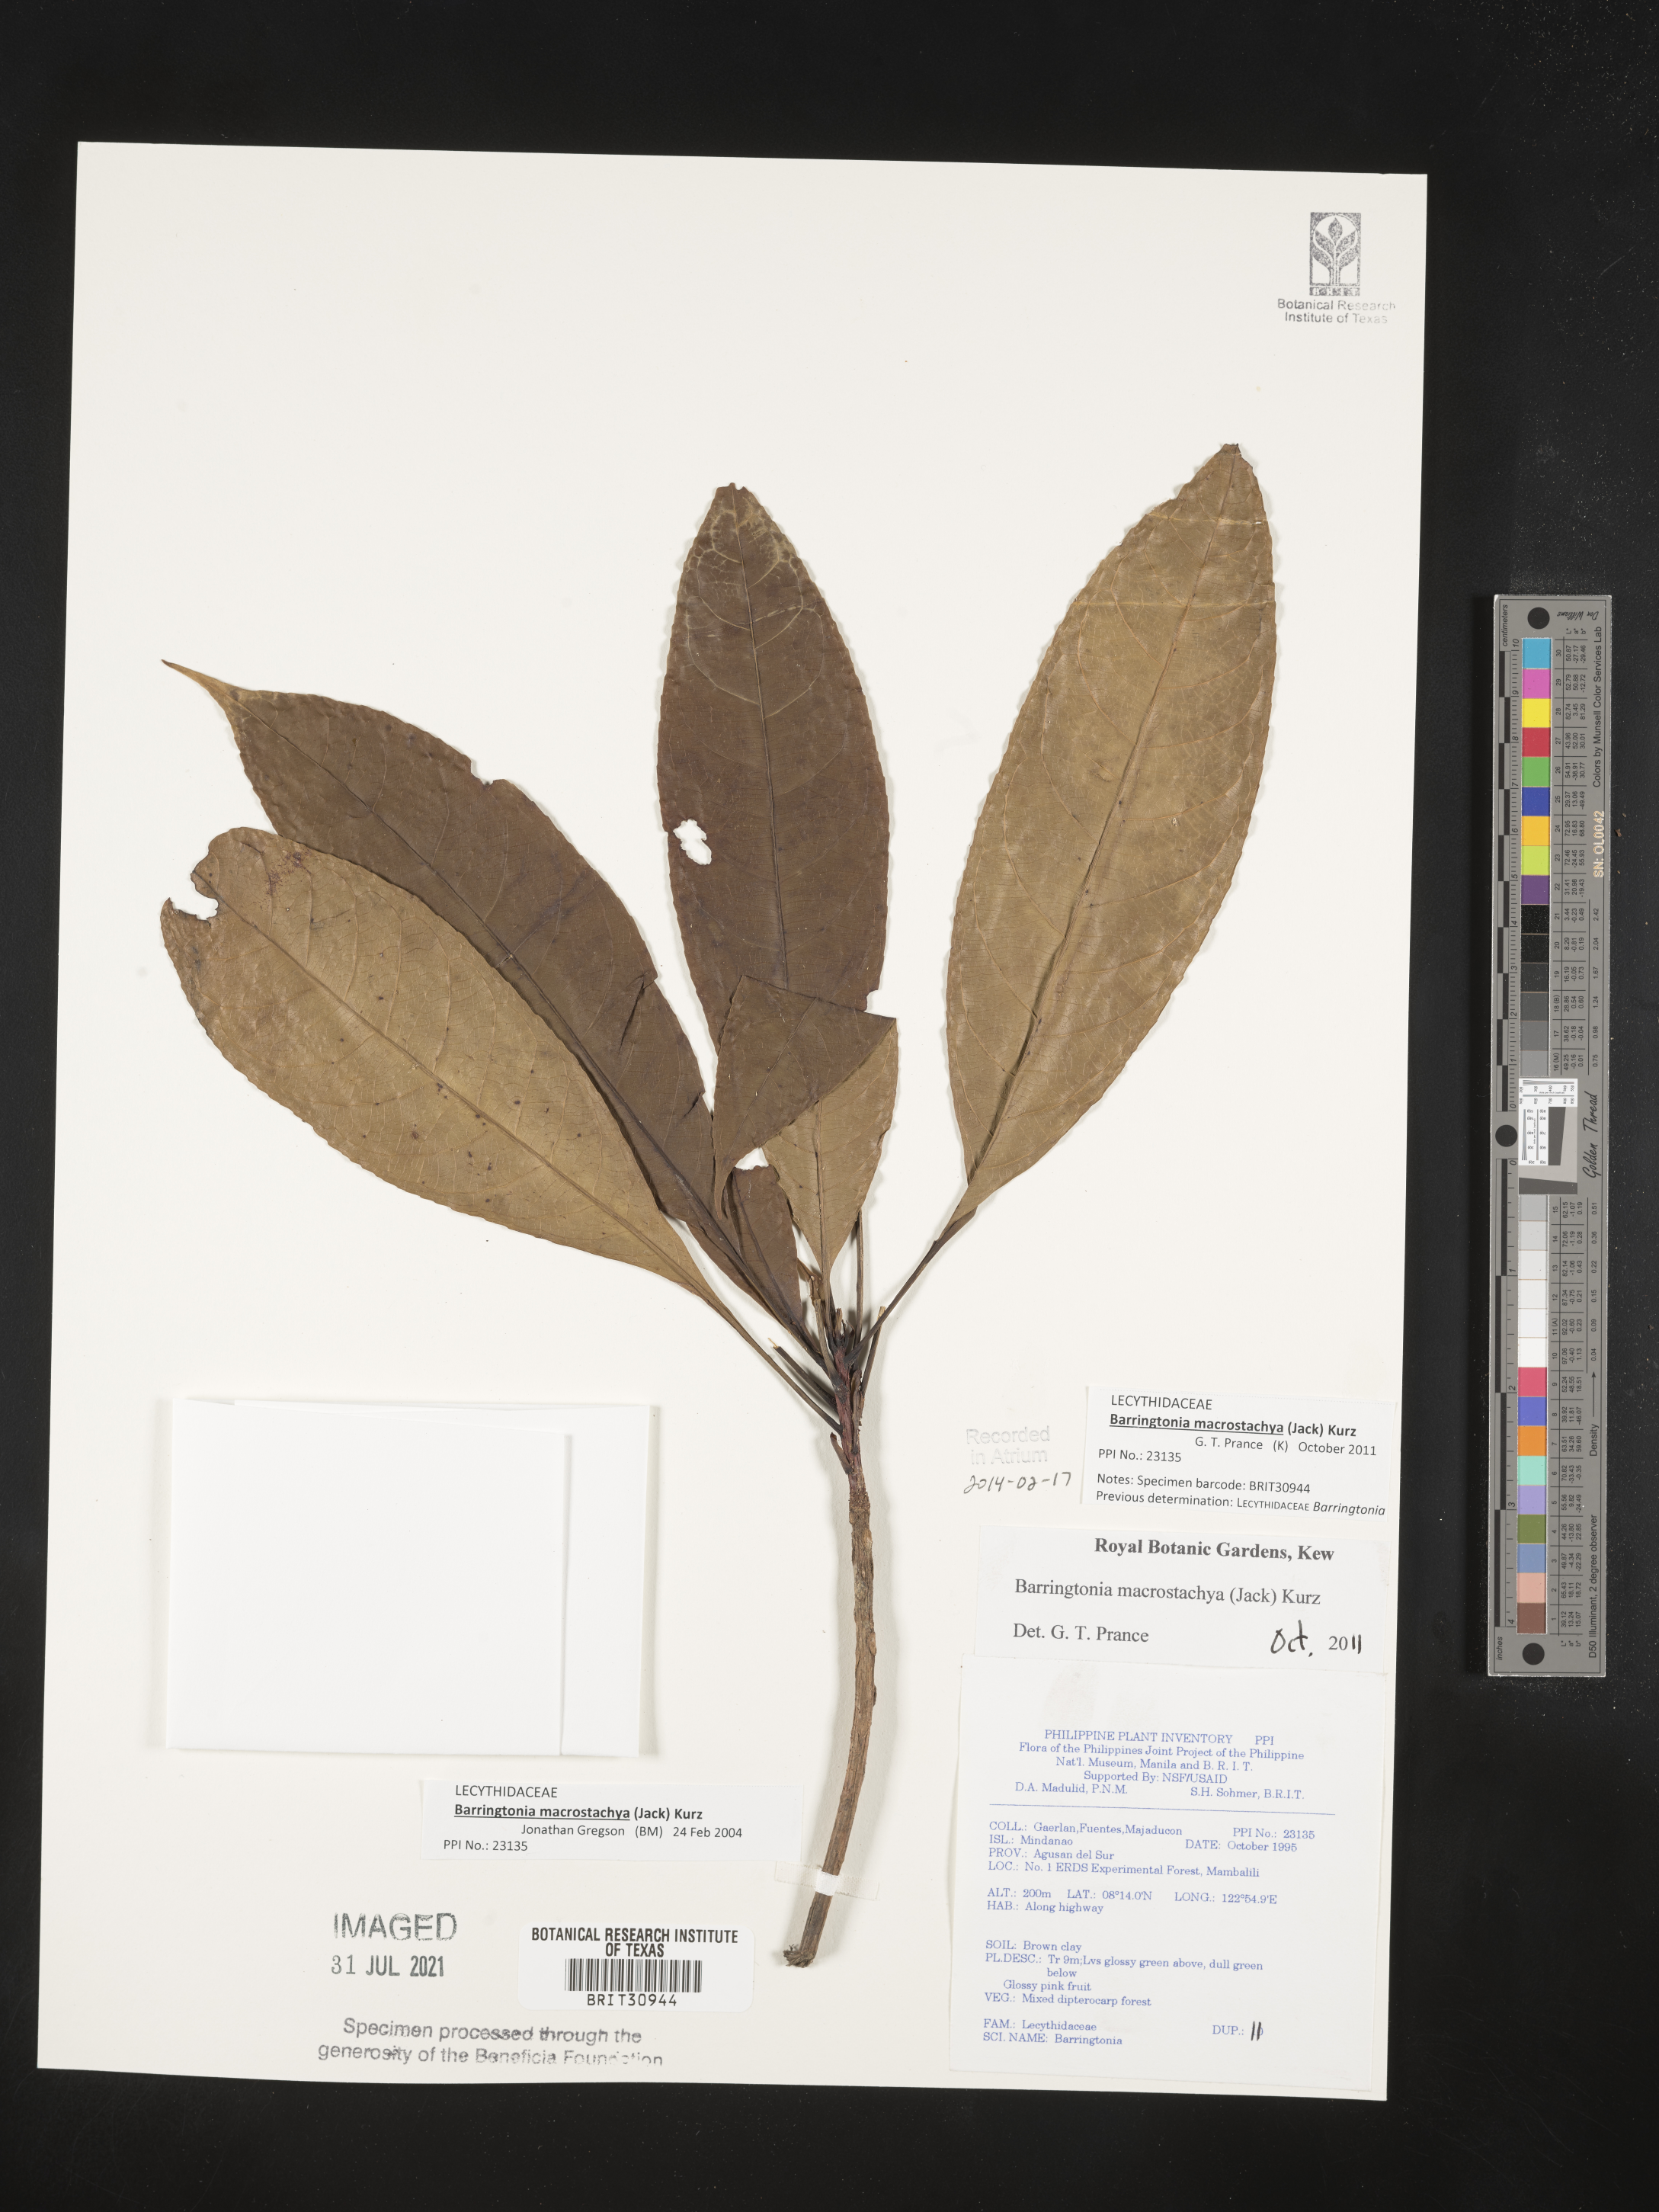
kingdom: Plantae
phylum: Tracheophyta
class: Magnoliopsida
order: Ericales
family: Lecythidaceae
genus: Barringtonia
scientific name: Barringtonia
